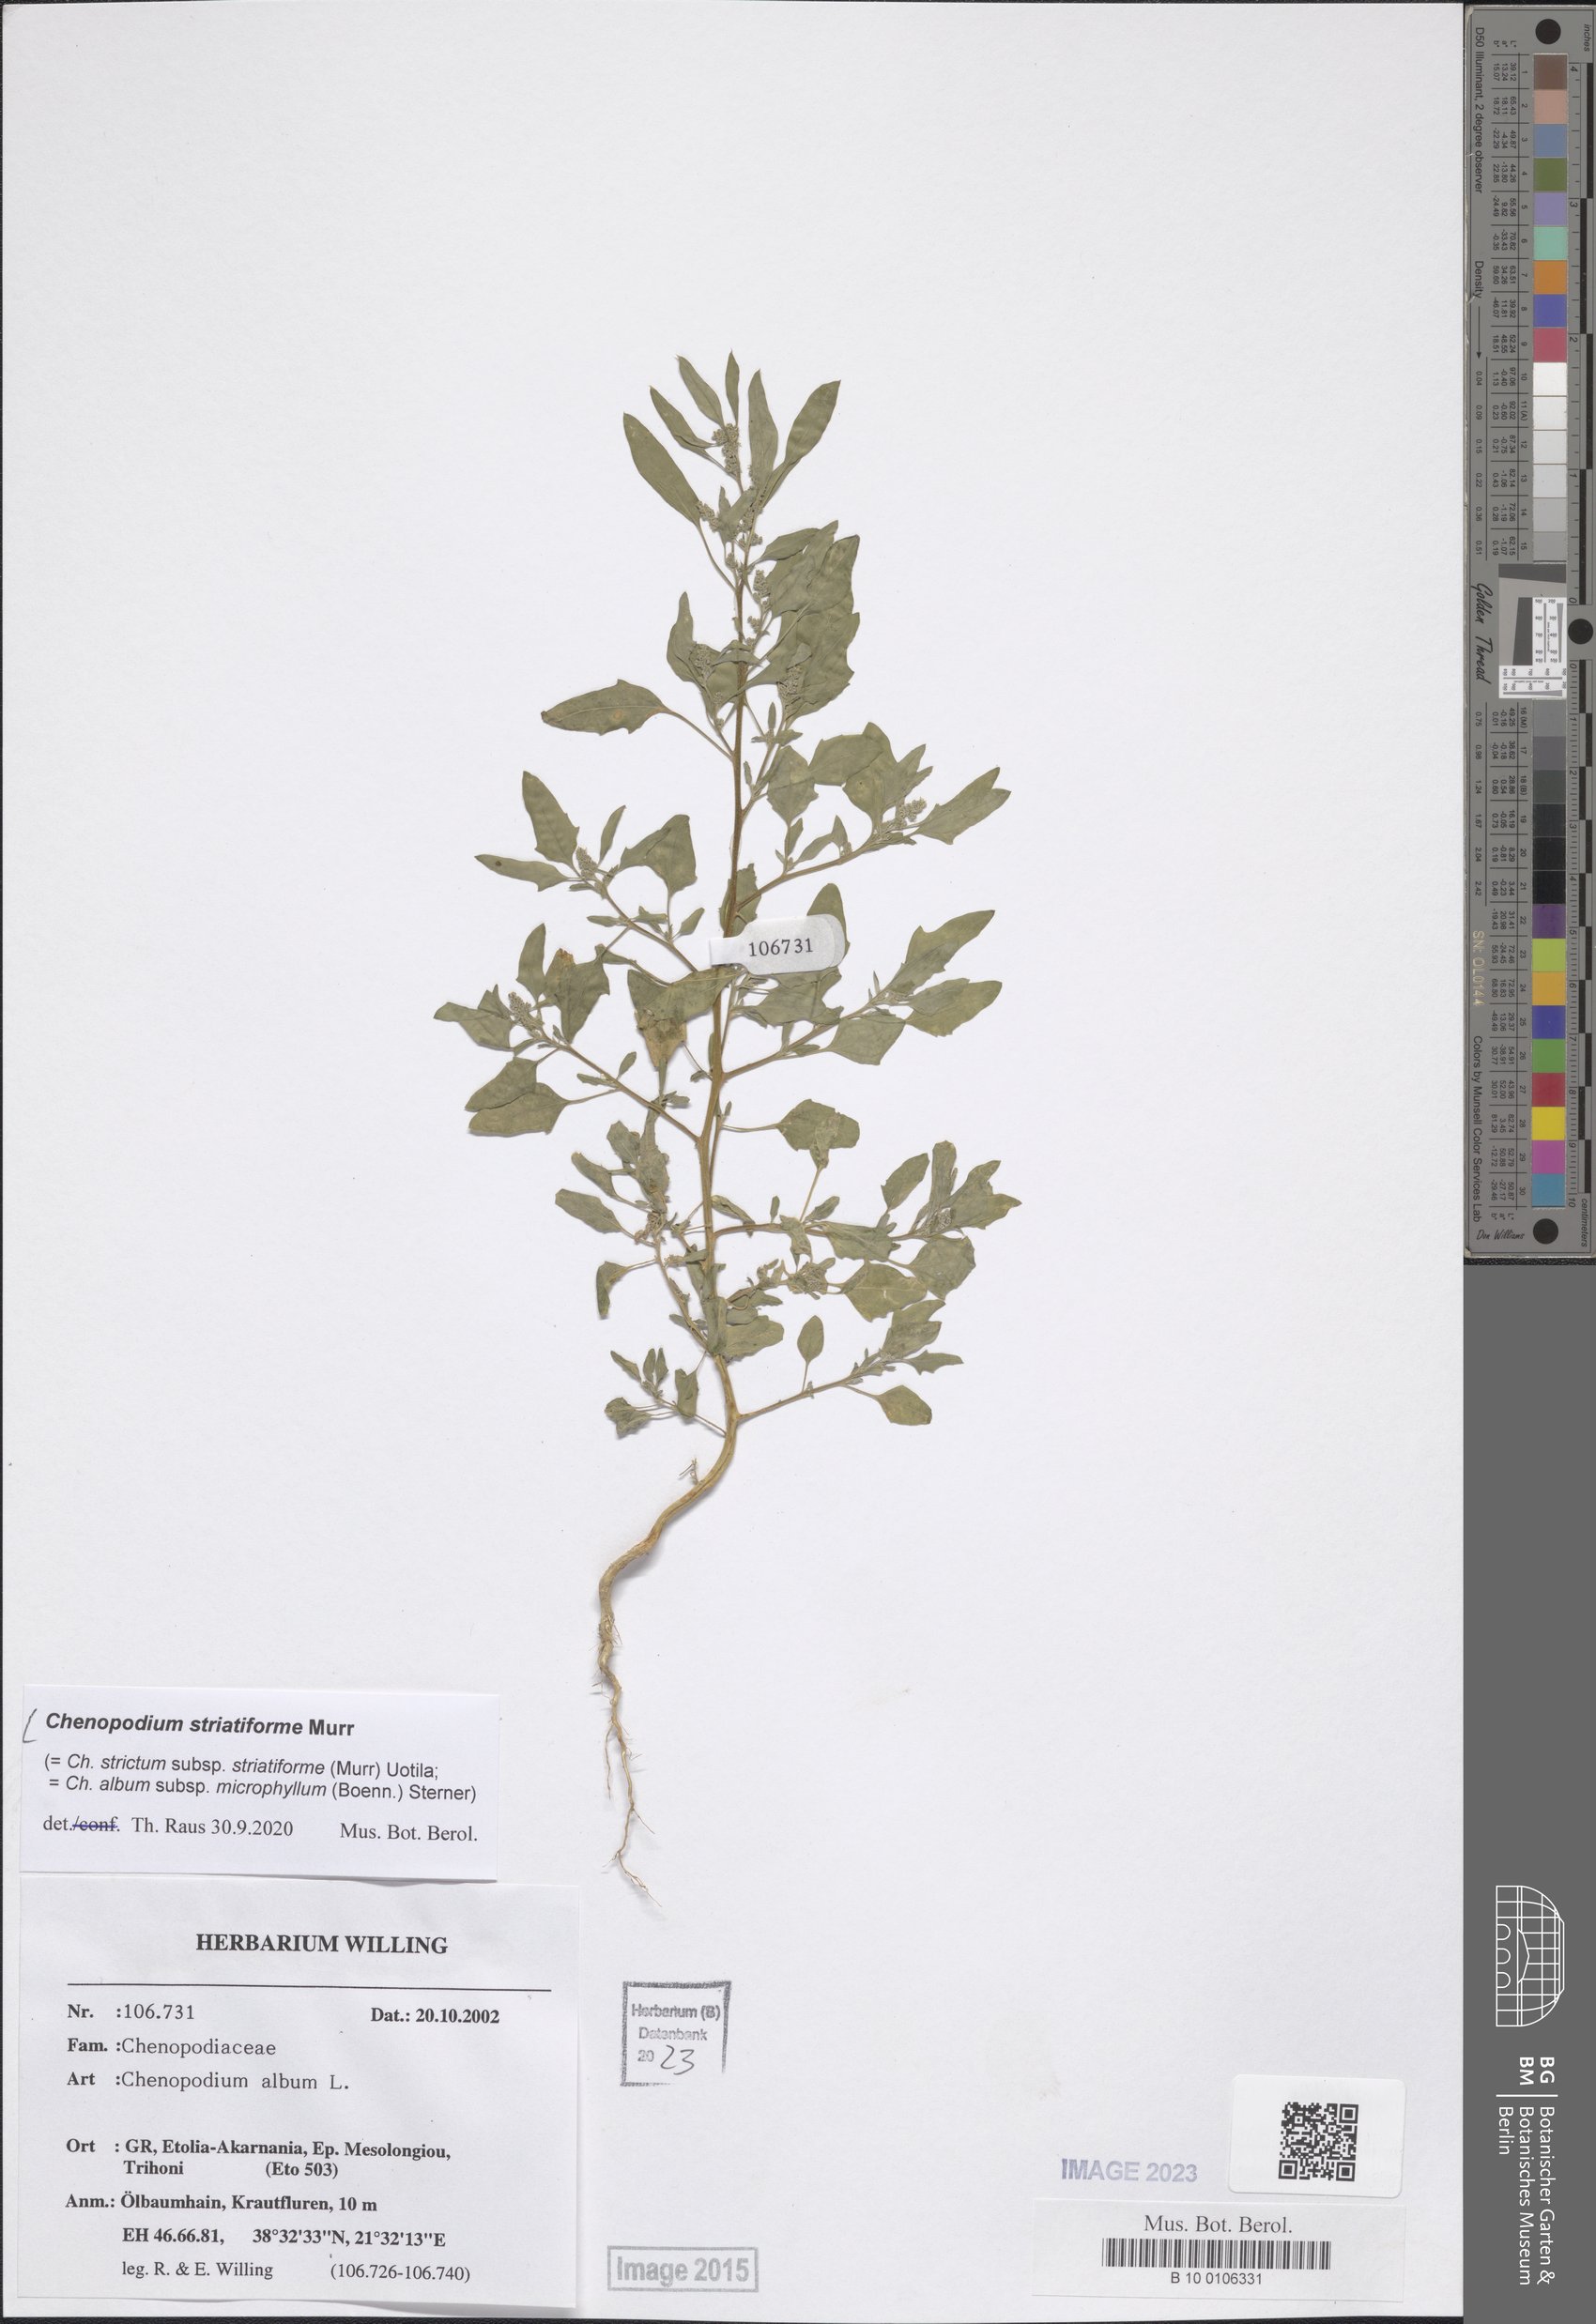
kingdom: Plantae
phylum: Tracheophyta
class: Magnoliopsida
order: Caryophyllales
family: Amaranthaceae
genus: Chenopodium
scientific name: Chenopodium striatiforme
